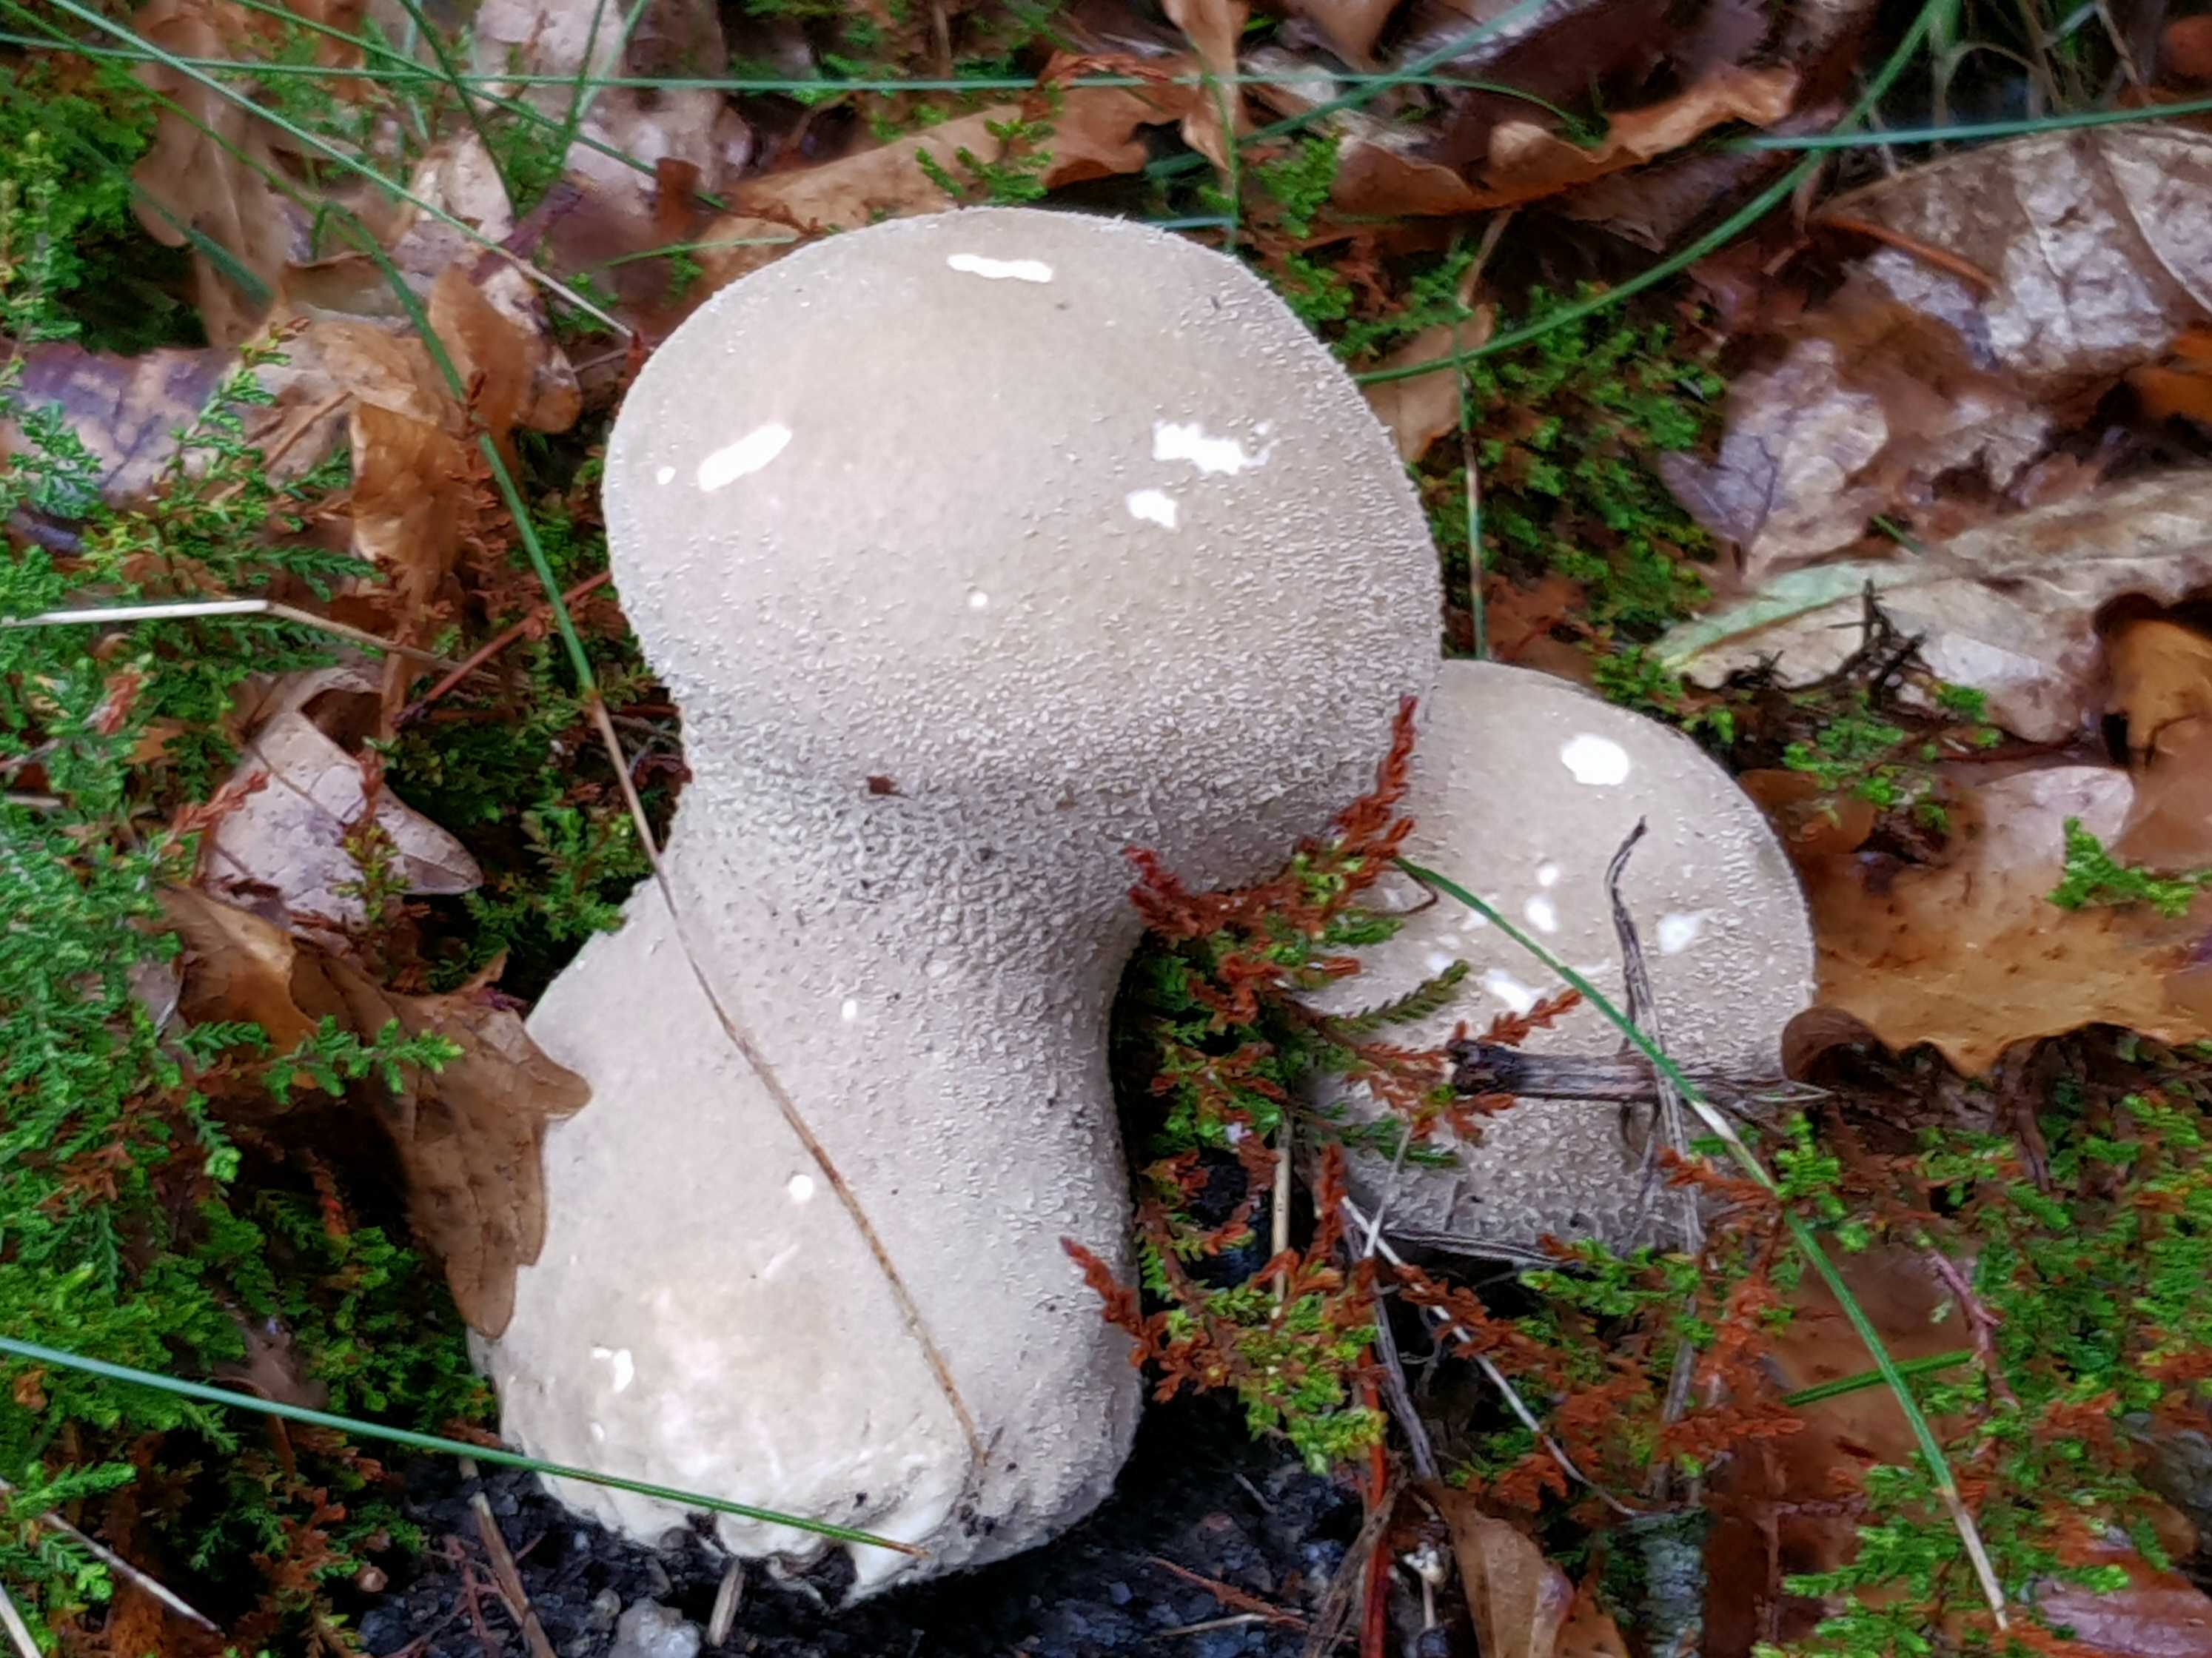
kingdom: Fungi
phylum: Basidiomycota
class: Agaricomycetes
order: Agaricales
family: Lycoperdaceae
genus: Lycoperdon
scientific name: Lycoperdon excipuliforme
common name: højstokket støvbold
